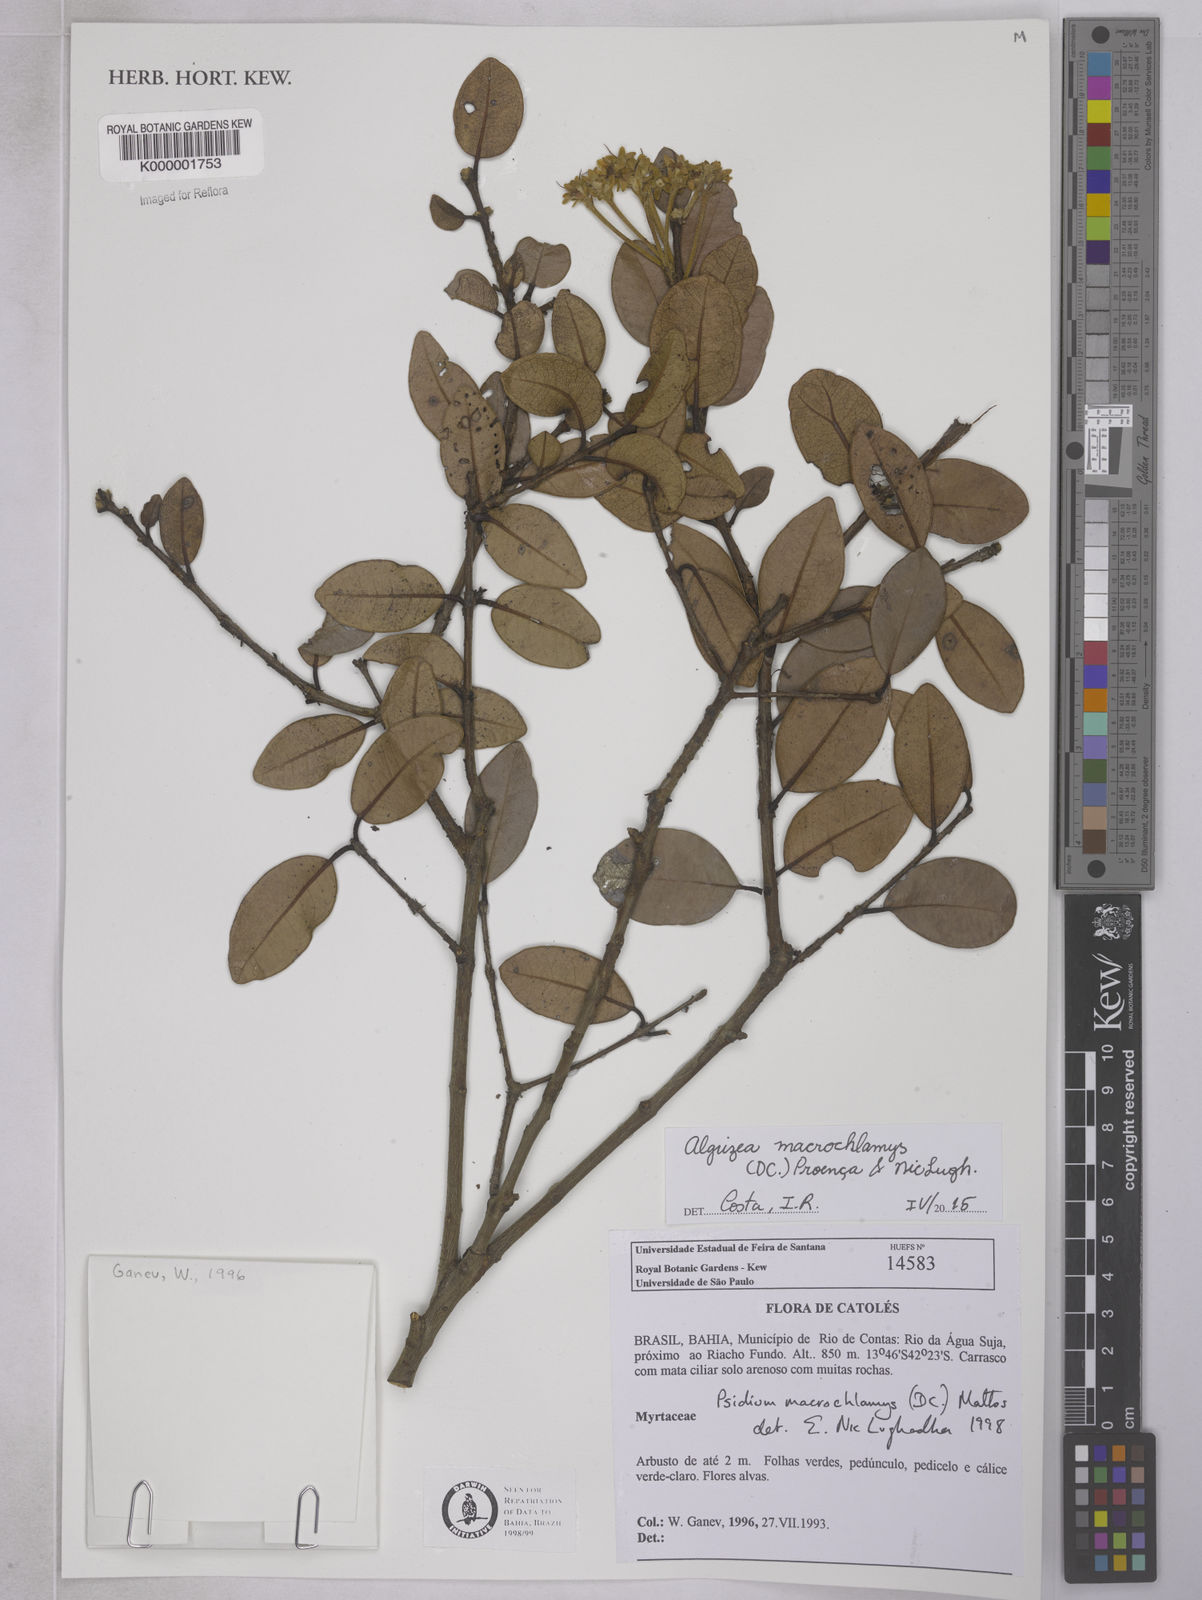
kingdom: Plantae
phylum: Tracheophyta
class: Magnoliopsida
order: Myrtales
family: Myrtaceae
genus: Algrizea
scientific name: Algrizea
